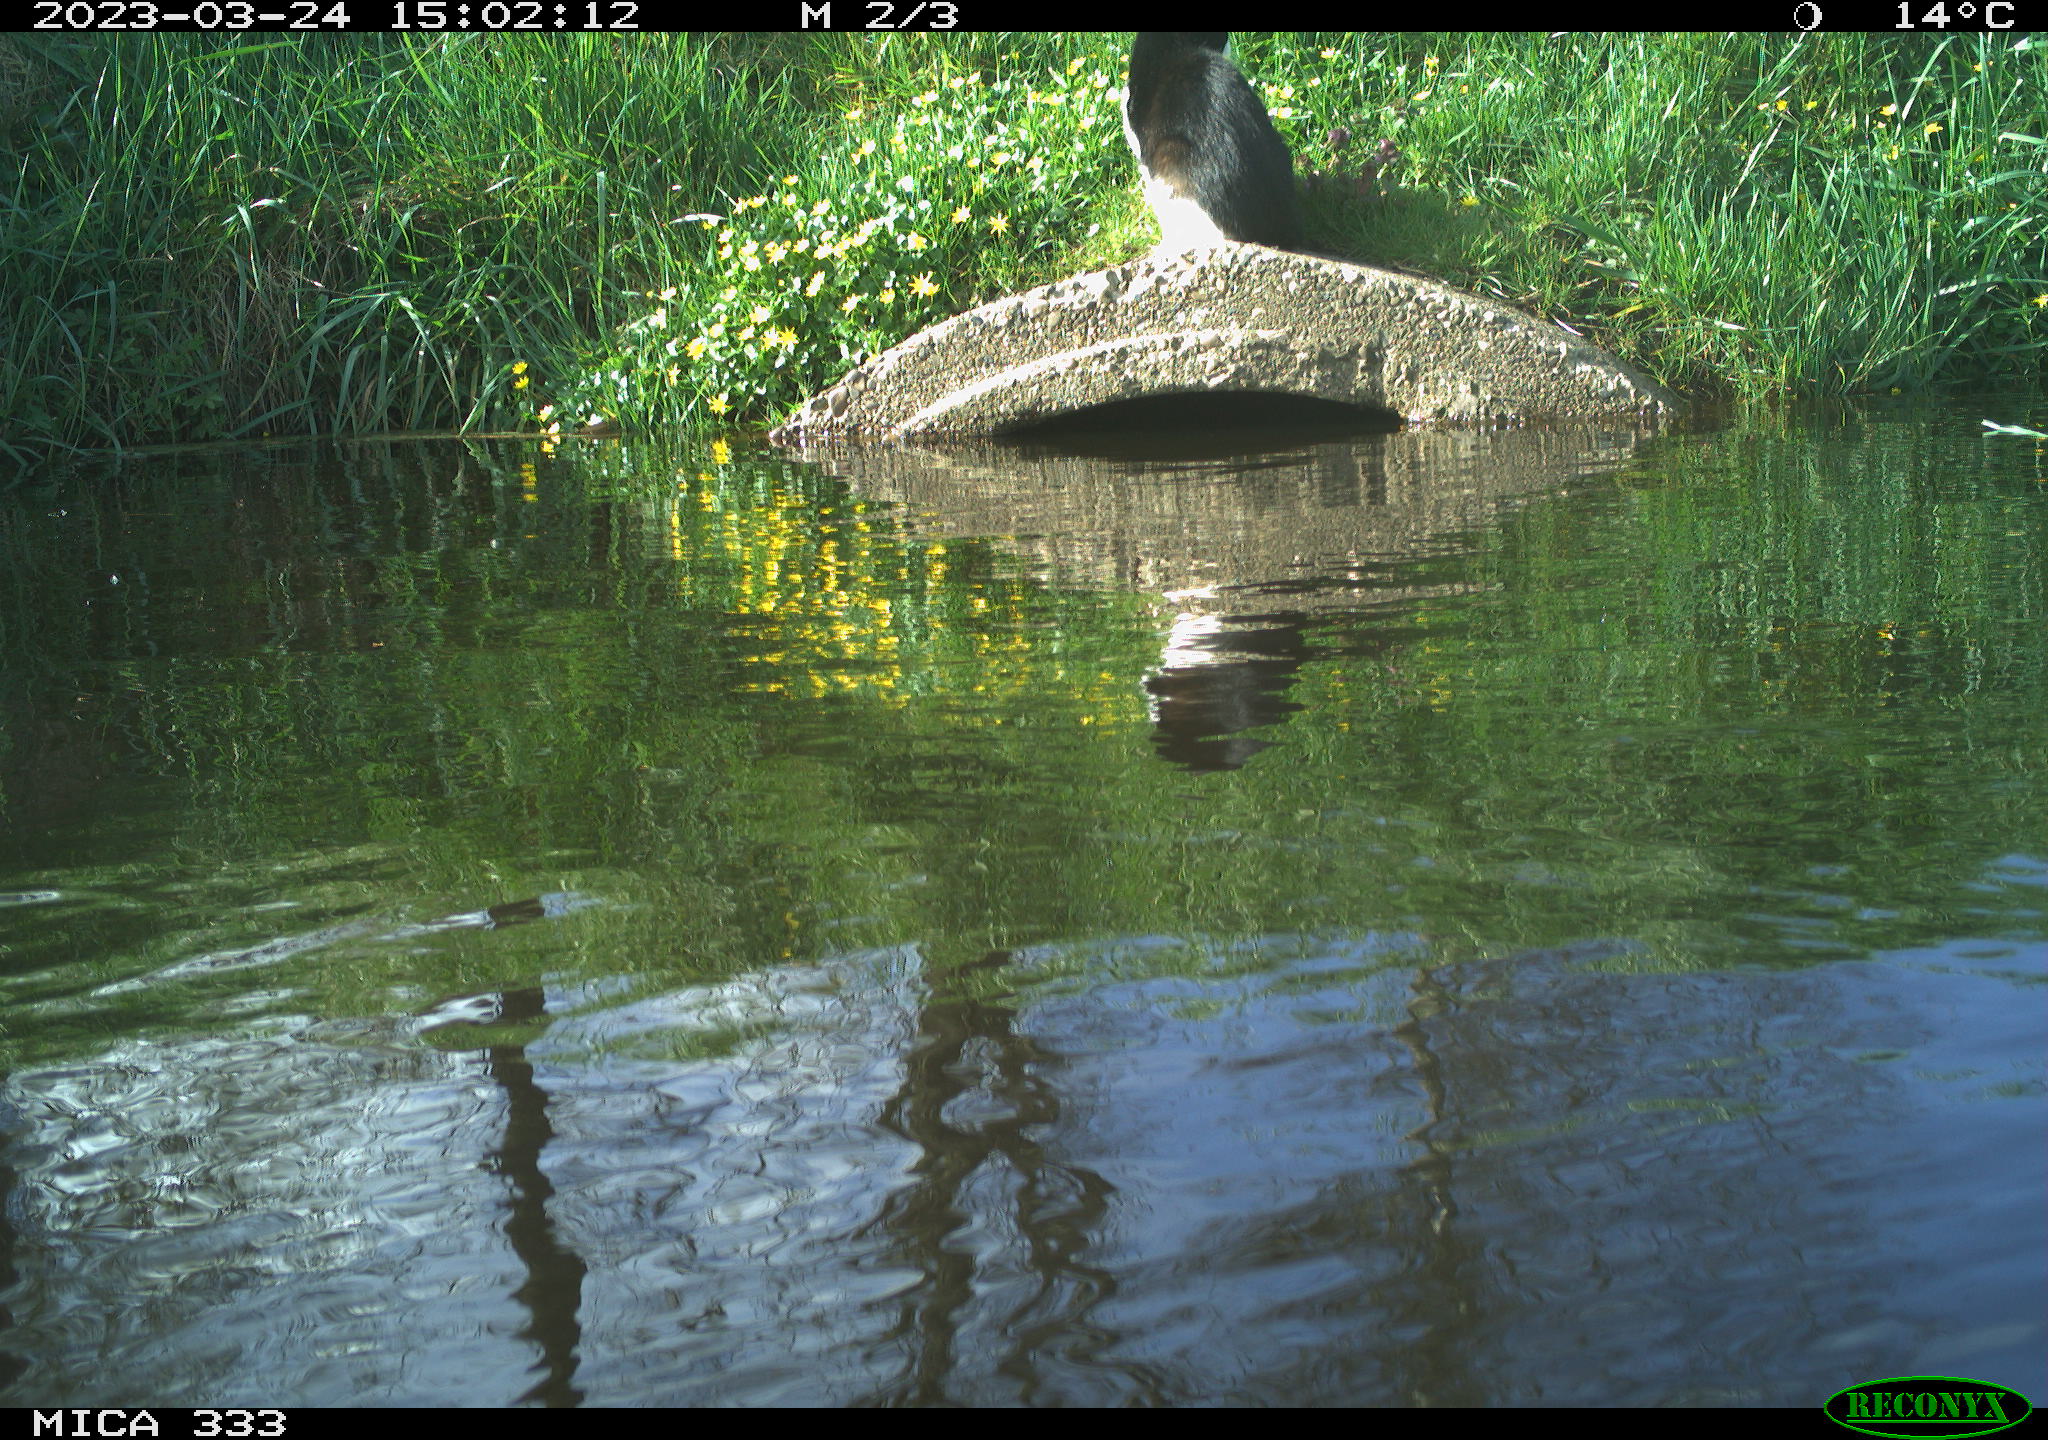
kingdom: Animalia
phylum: Chordata
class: Mammalia
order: Carnivora
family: Felidae
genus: Felis
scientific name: Felis catus
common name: Domestic cat
